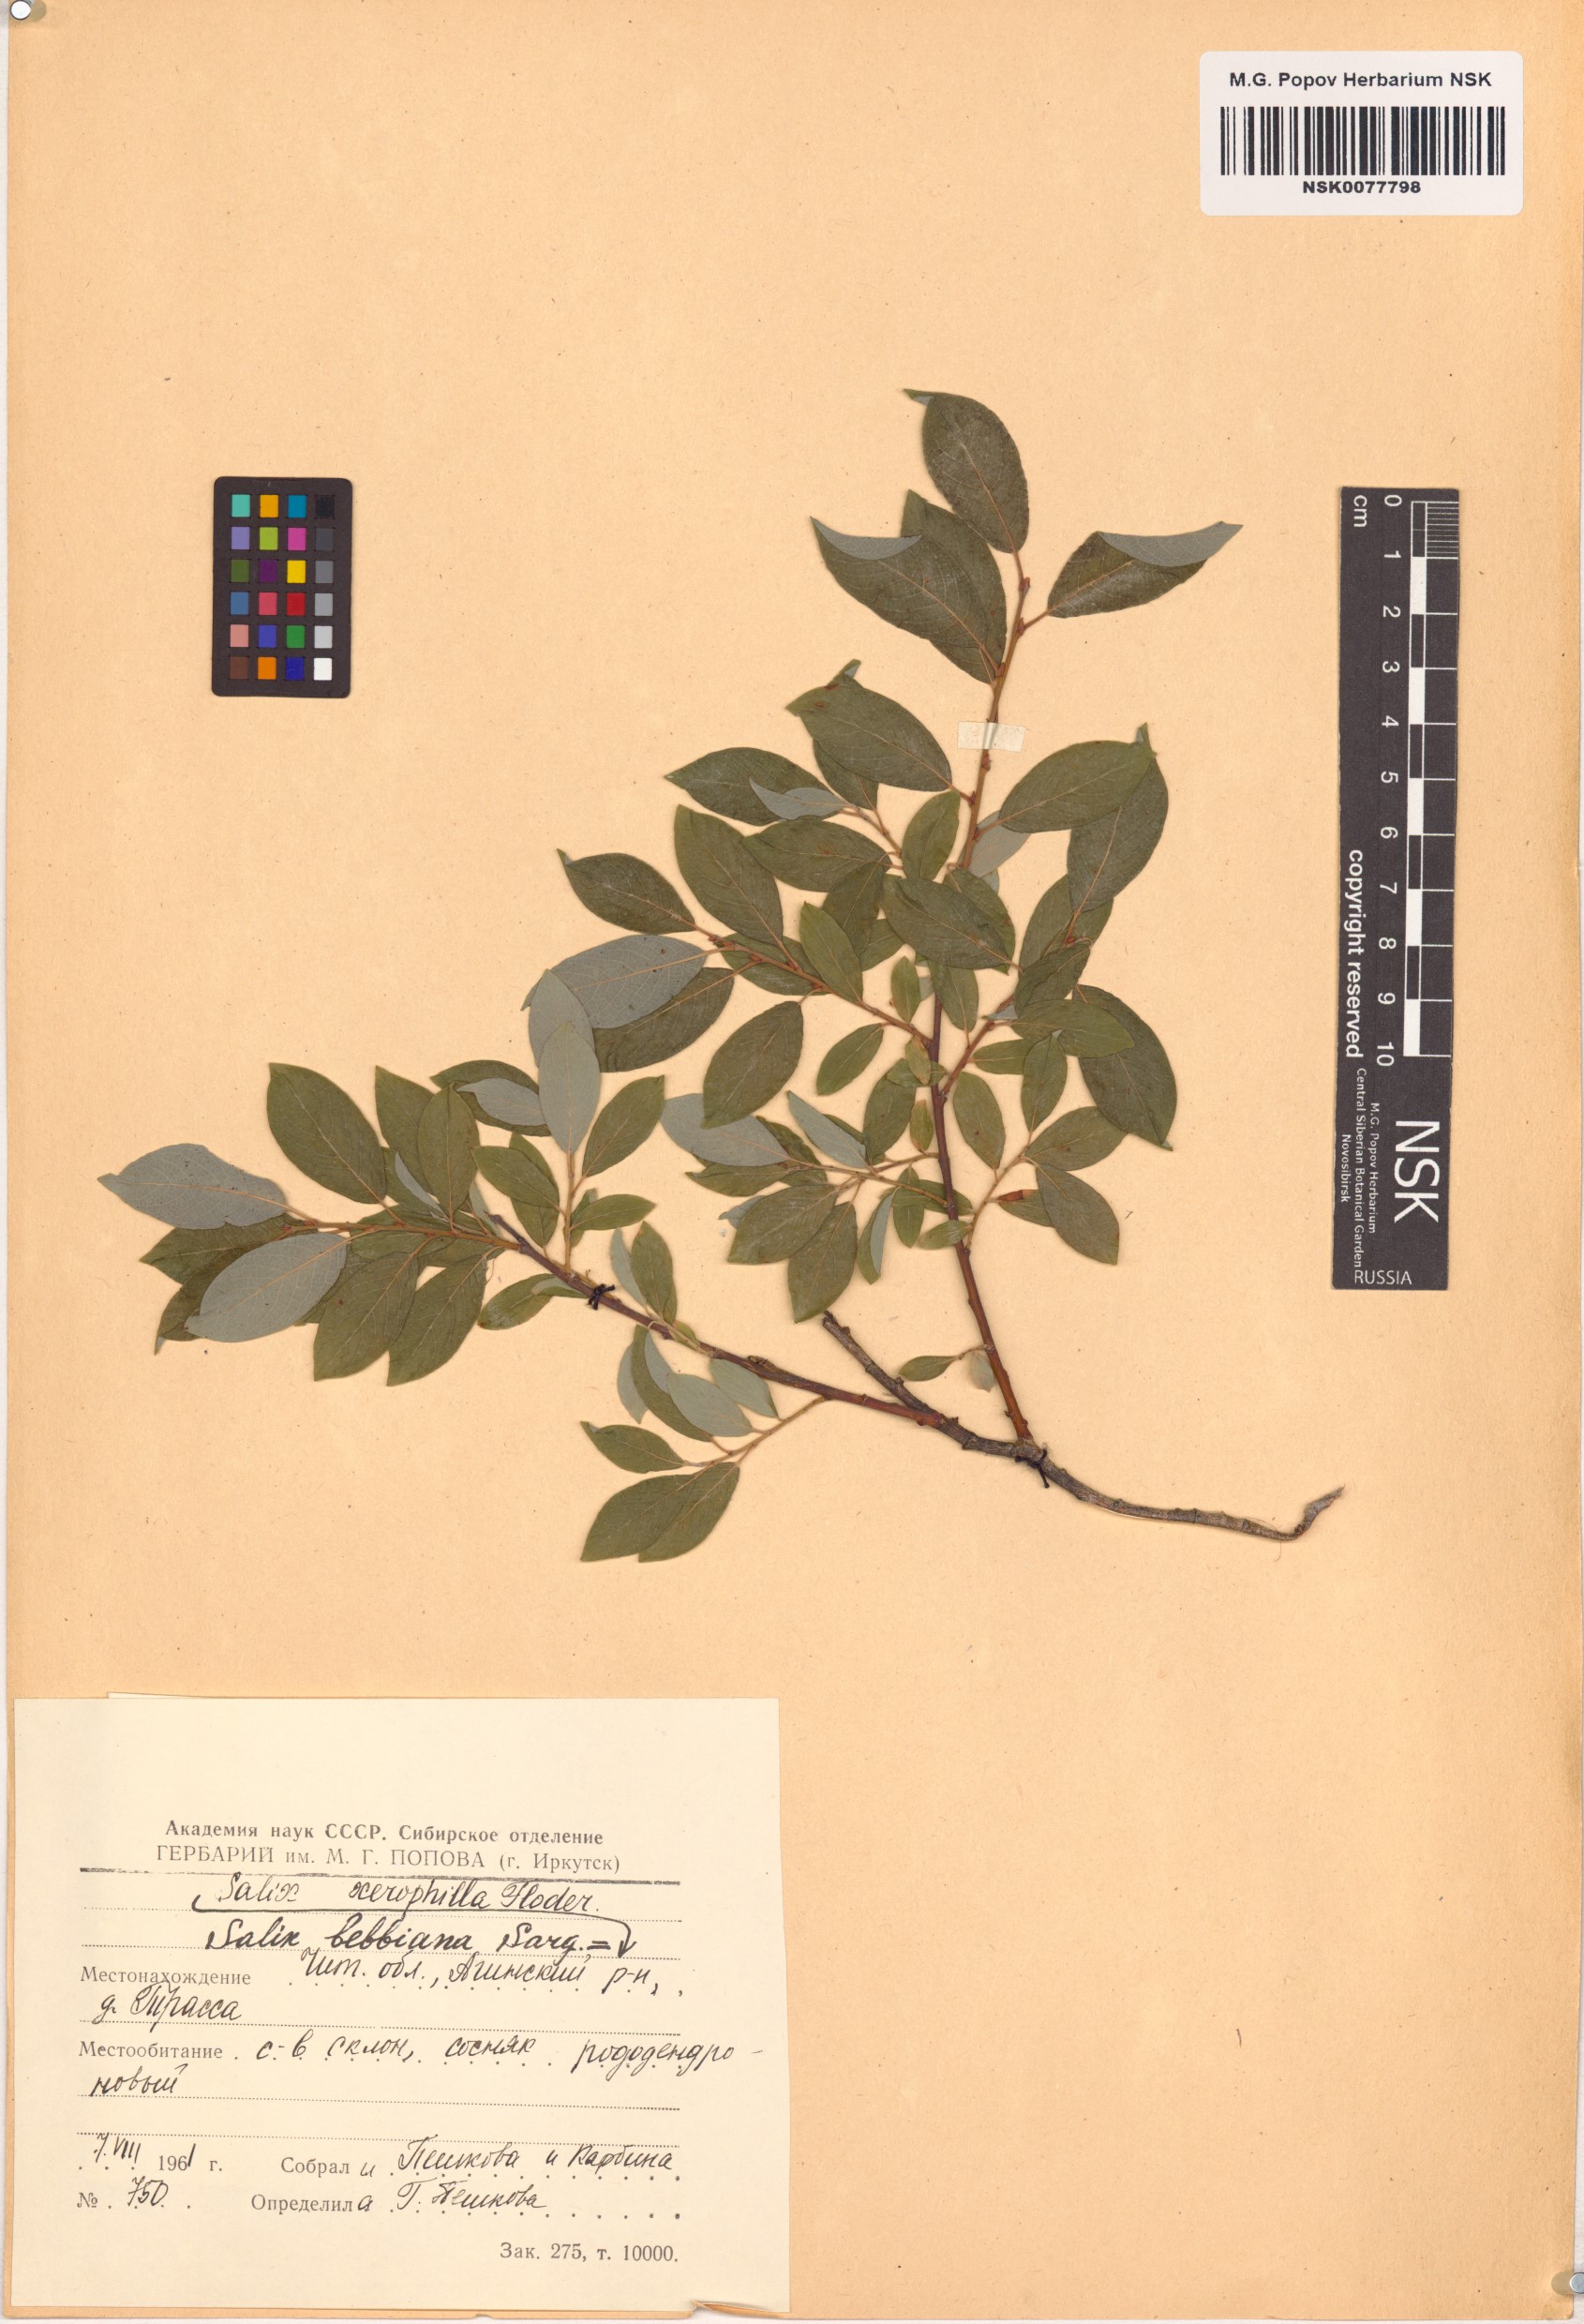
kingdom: Plantae
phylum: Tracheophyta
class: Magnoliopsida
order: Malpighiales
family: Salicaceae
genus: Salix
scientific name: Salix bebbiana
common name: Bebb's willow
